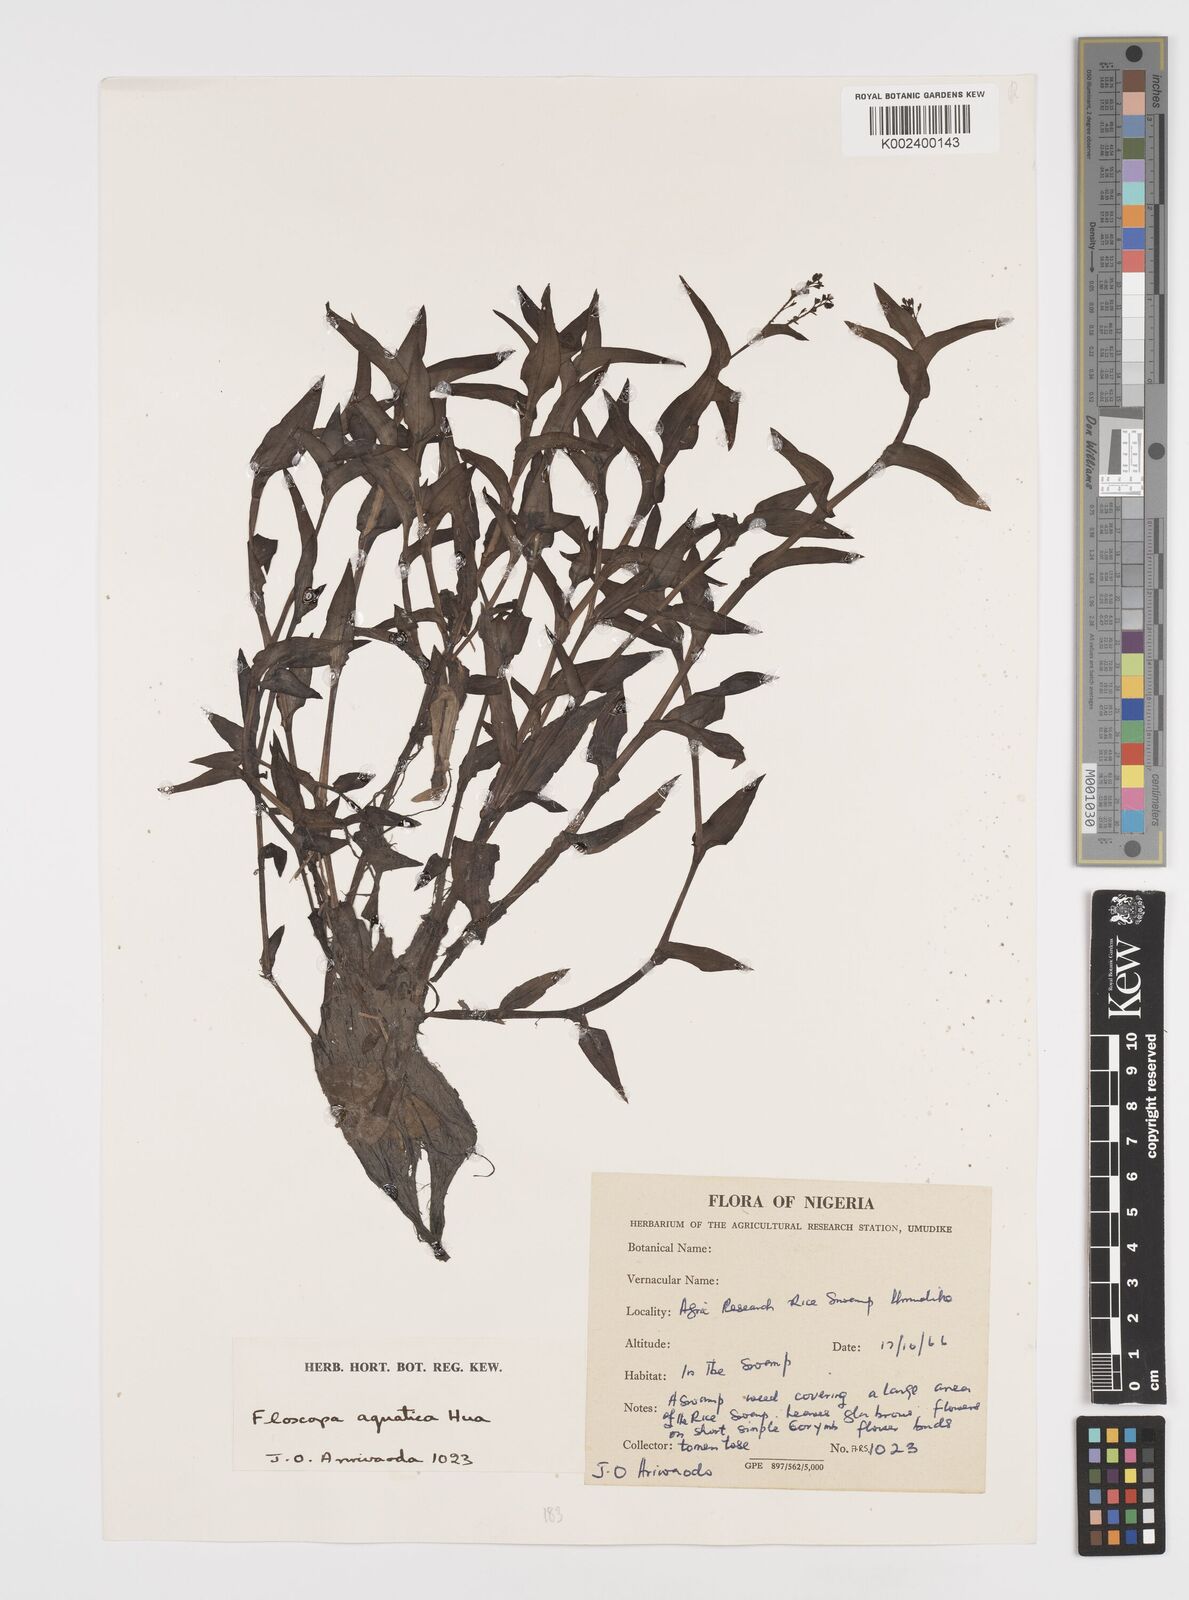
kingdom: Plantae
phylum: Tracheophyta
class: Liliopsida
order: Commelinales
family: Commelinaceae
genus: Floscopa
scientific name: Floscopa aquatica
